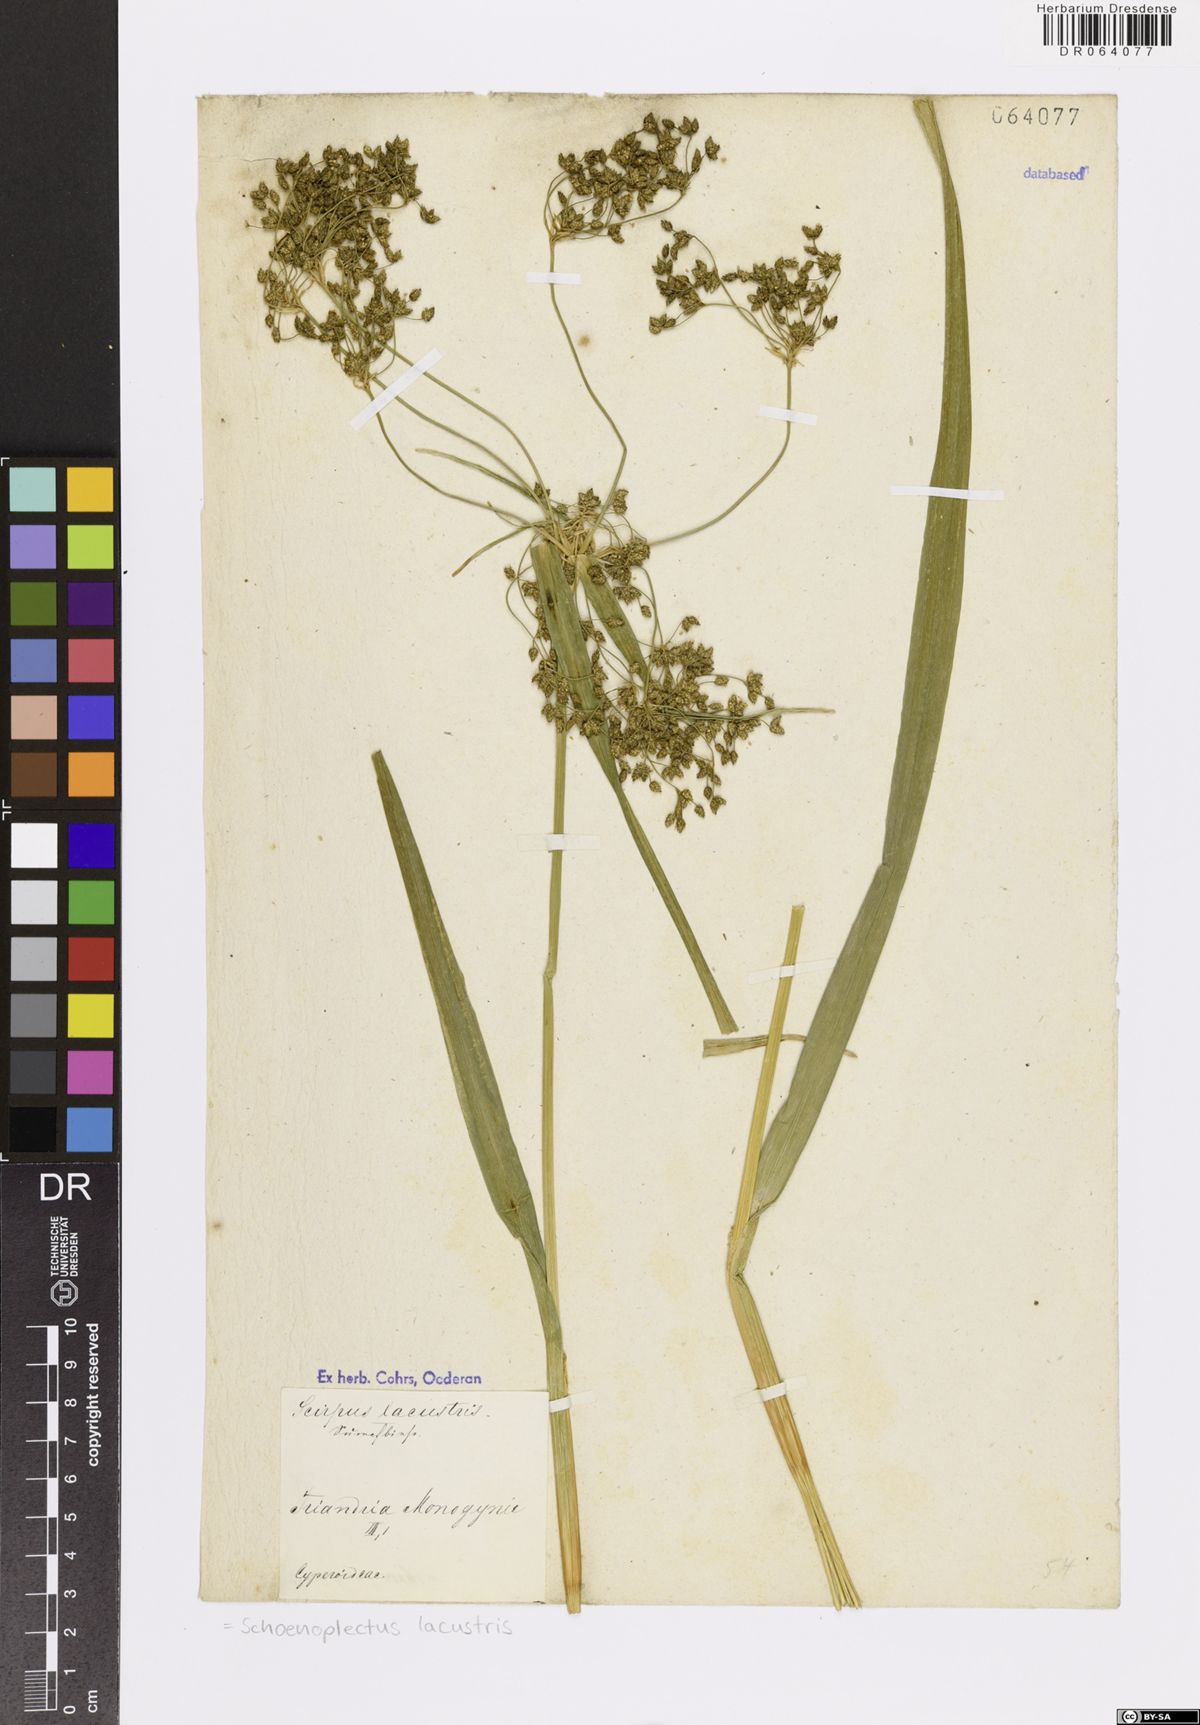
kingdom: Plantae
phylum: Tracheophyta
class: Liliopsida
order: Poales
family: Cyperaceae
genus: Schoenoplectus
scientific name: Schoenoplectus lacustris
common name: Common club-rush
